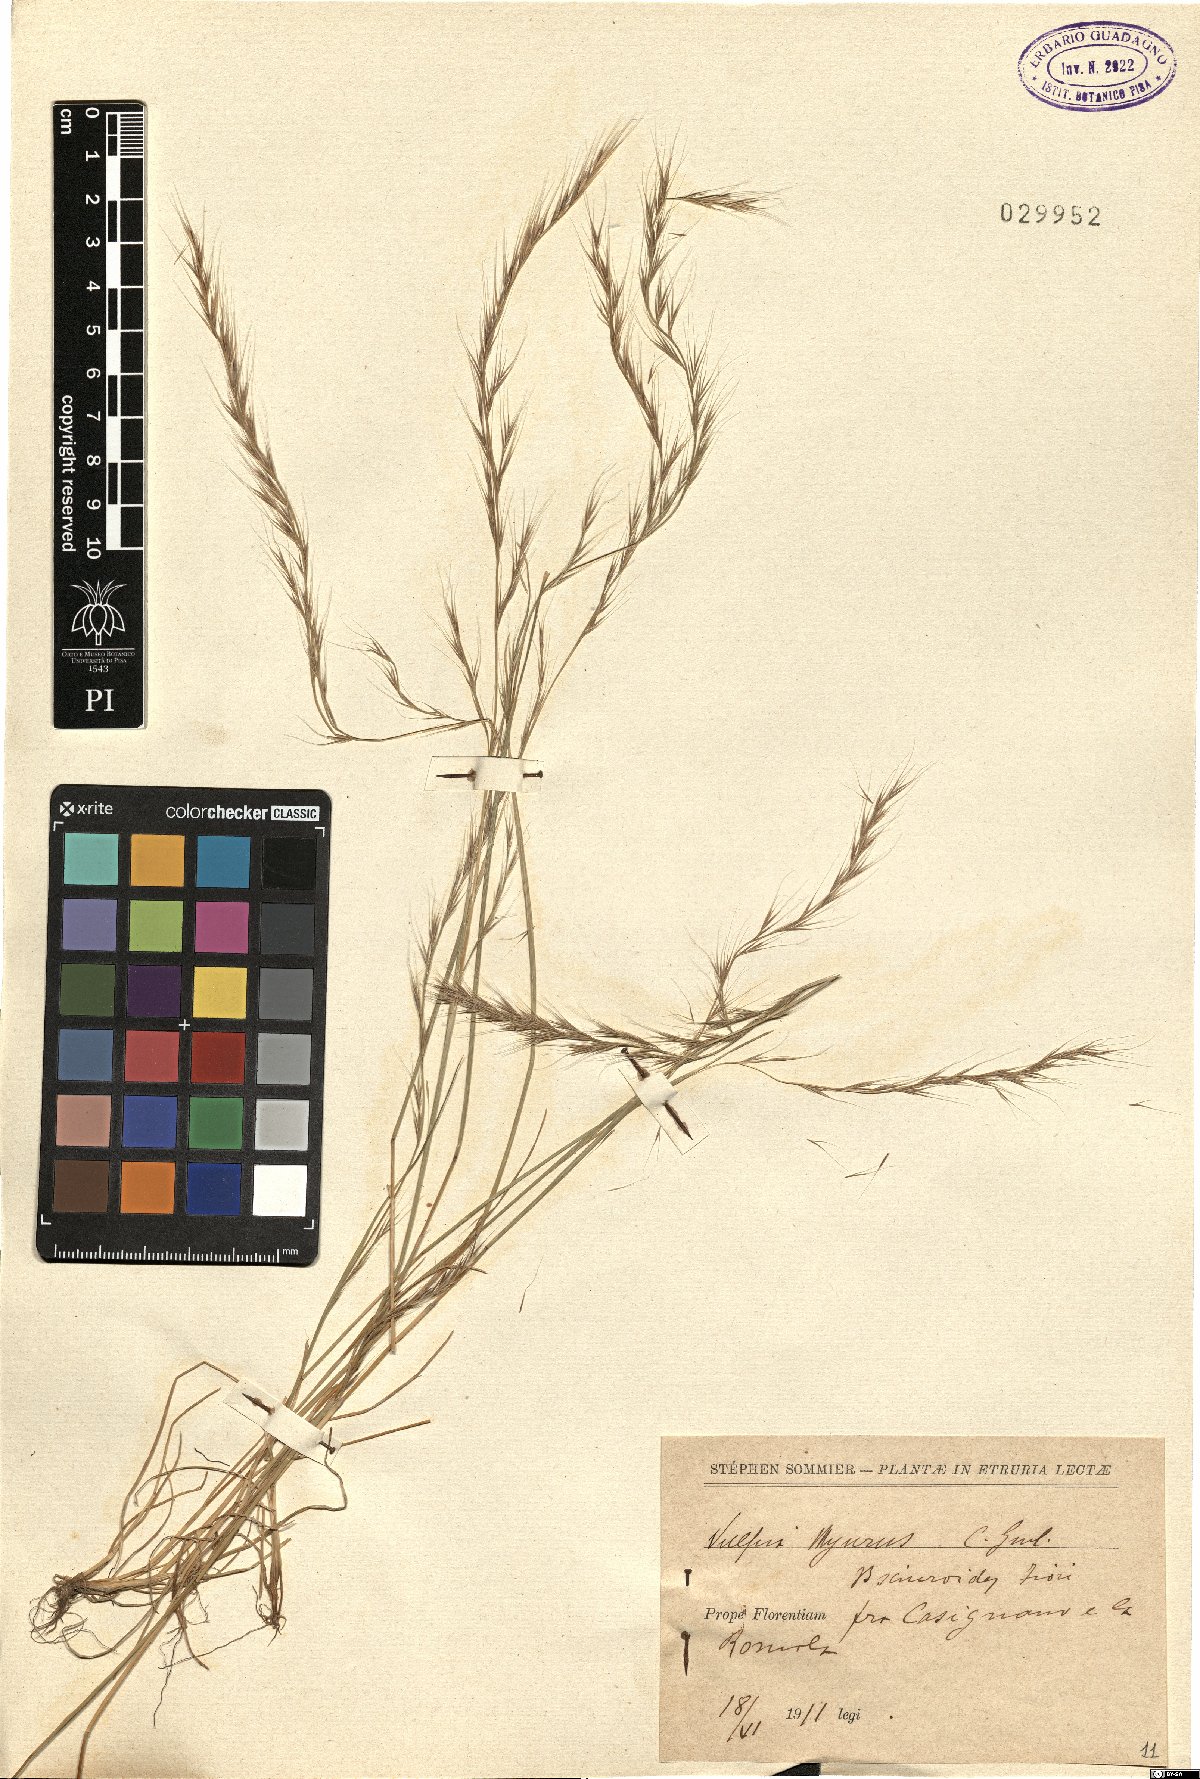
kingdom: Plantae
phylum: Tracheophyta
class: Liliopsida
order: Poales
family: Poaceae
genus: Festuca
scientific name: Festuca bromoides
